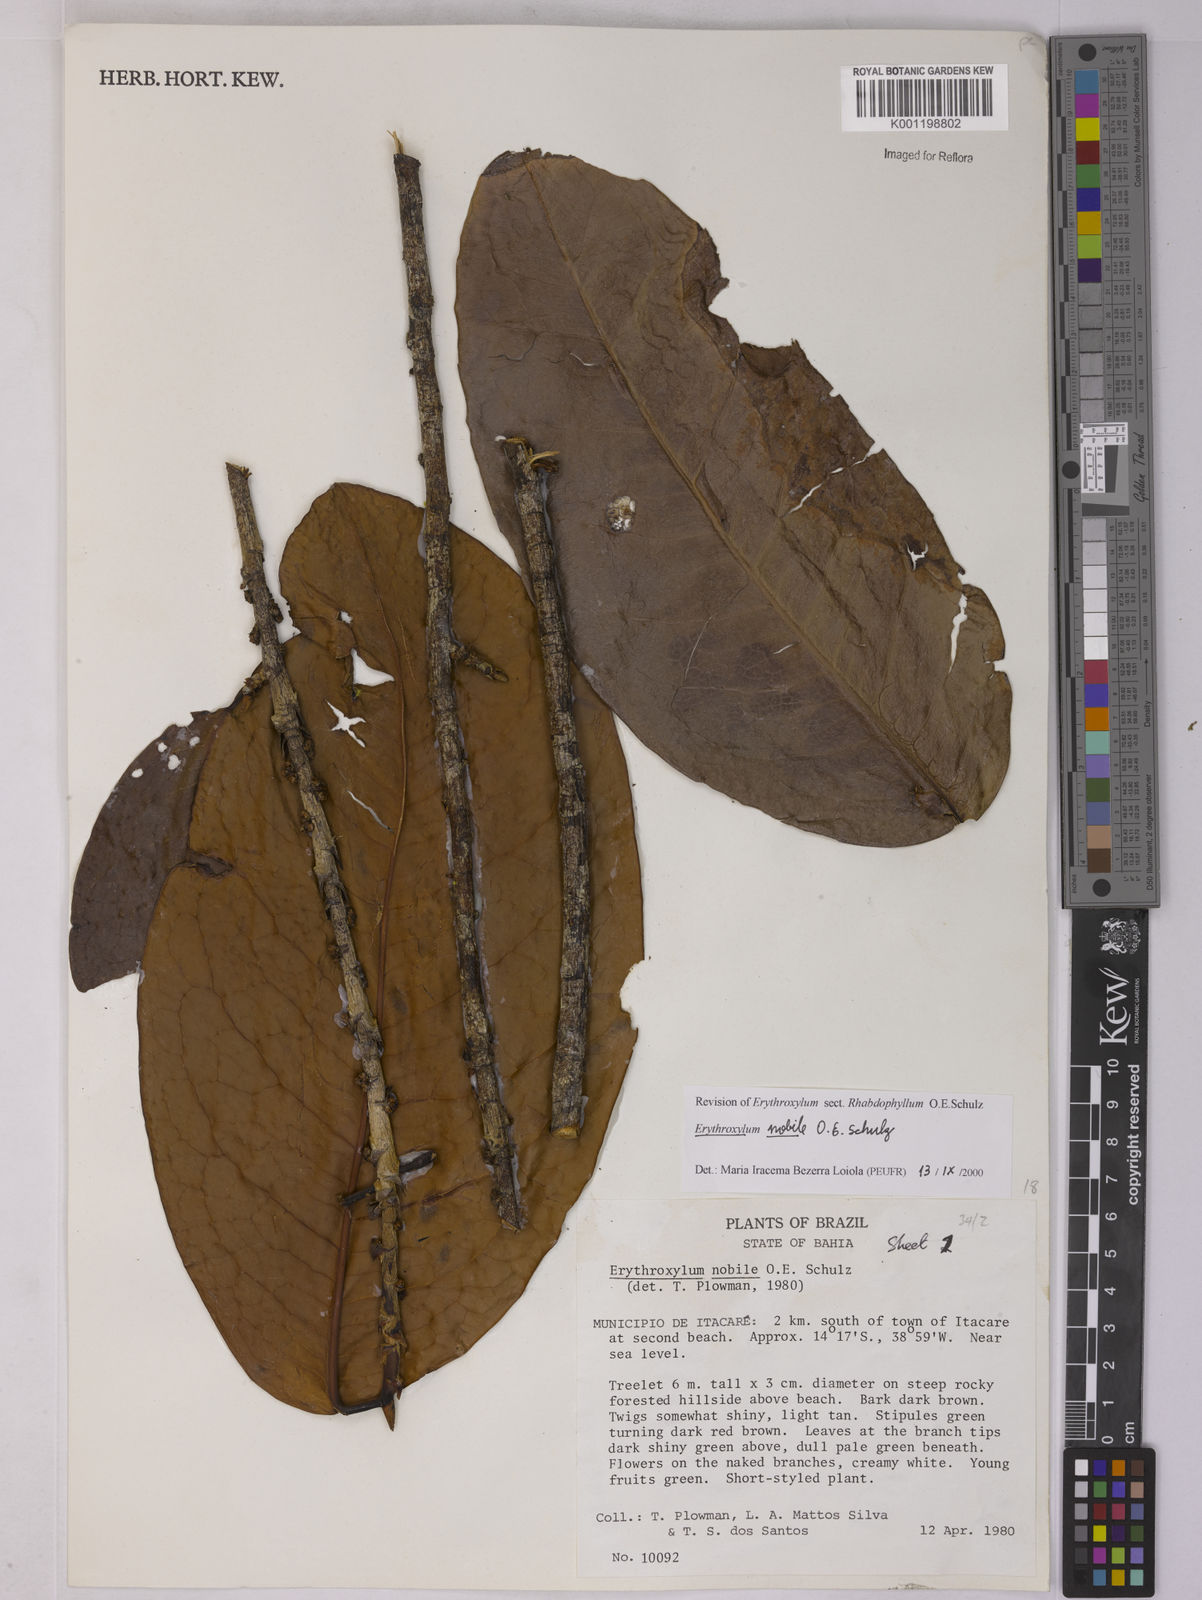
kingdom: Plantae
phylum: Tracheophyta
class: Magnoliopsida
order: Malpighiales
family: Erythroxylaceae
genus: Erythroxylum
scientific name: Erythroxylum nobile
